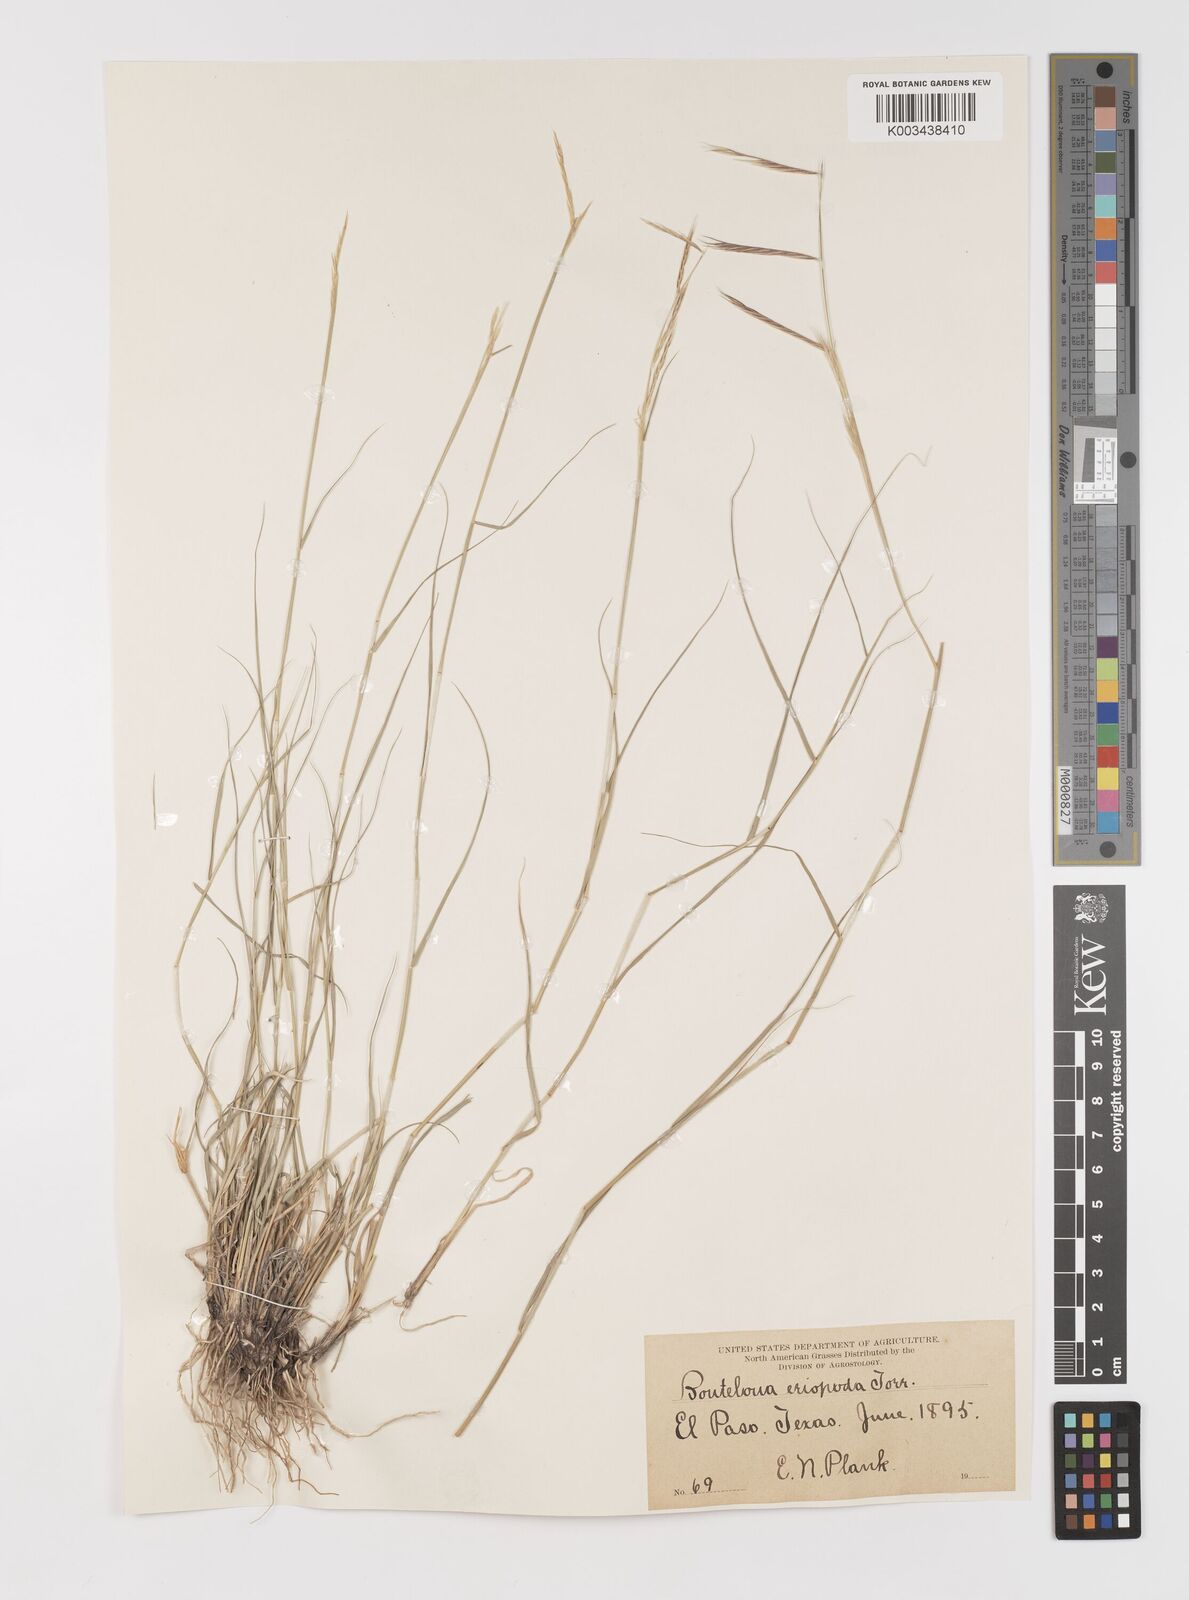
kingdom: Plantae
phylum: Tracheophyta
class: Liliopsida
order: Poales
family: Poaceae
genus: Bouteloua
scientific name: Bouteloua eriopoda
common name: Woolly foot grama
